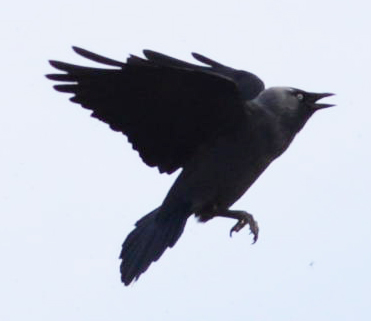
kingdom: Animalia
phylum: Chordata
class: Aves
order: Passeriformes
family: Corvidae
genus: Coloeus
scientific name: Coloeus monedula
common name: Western jackdaw
